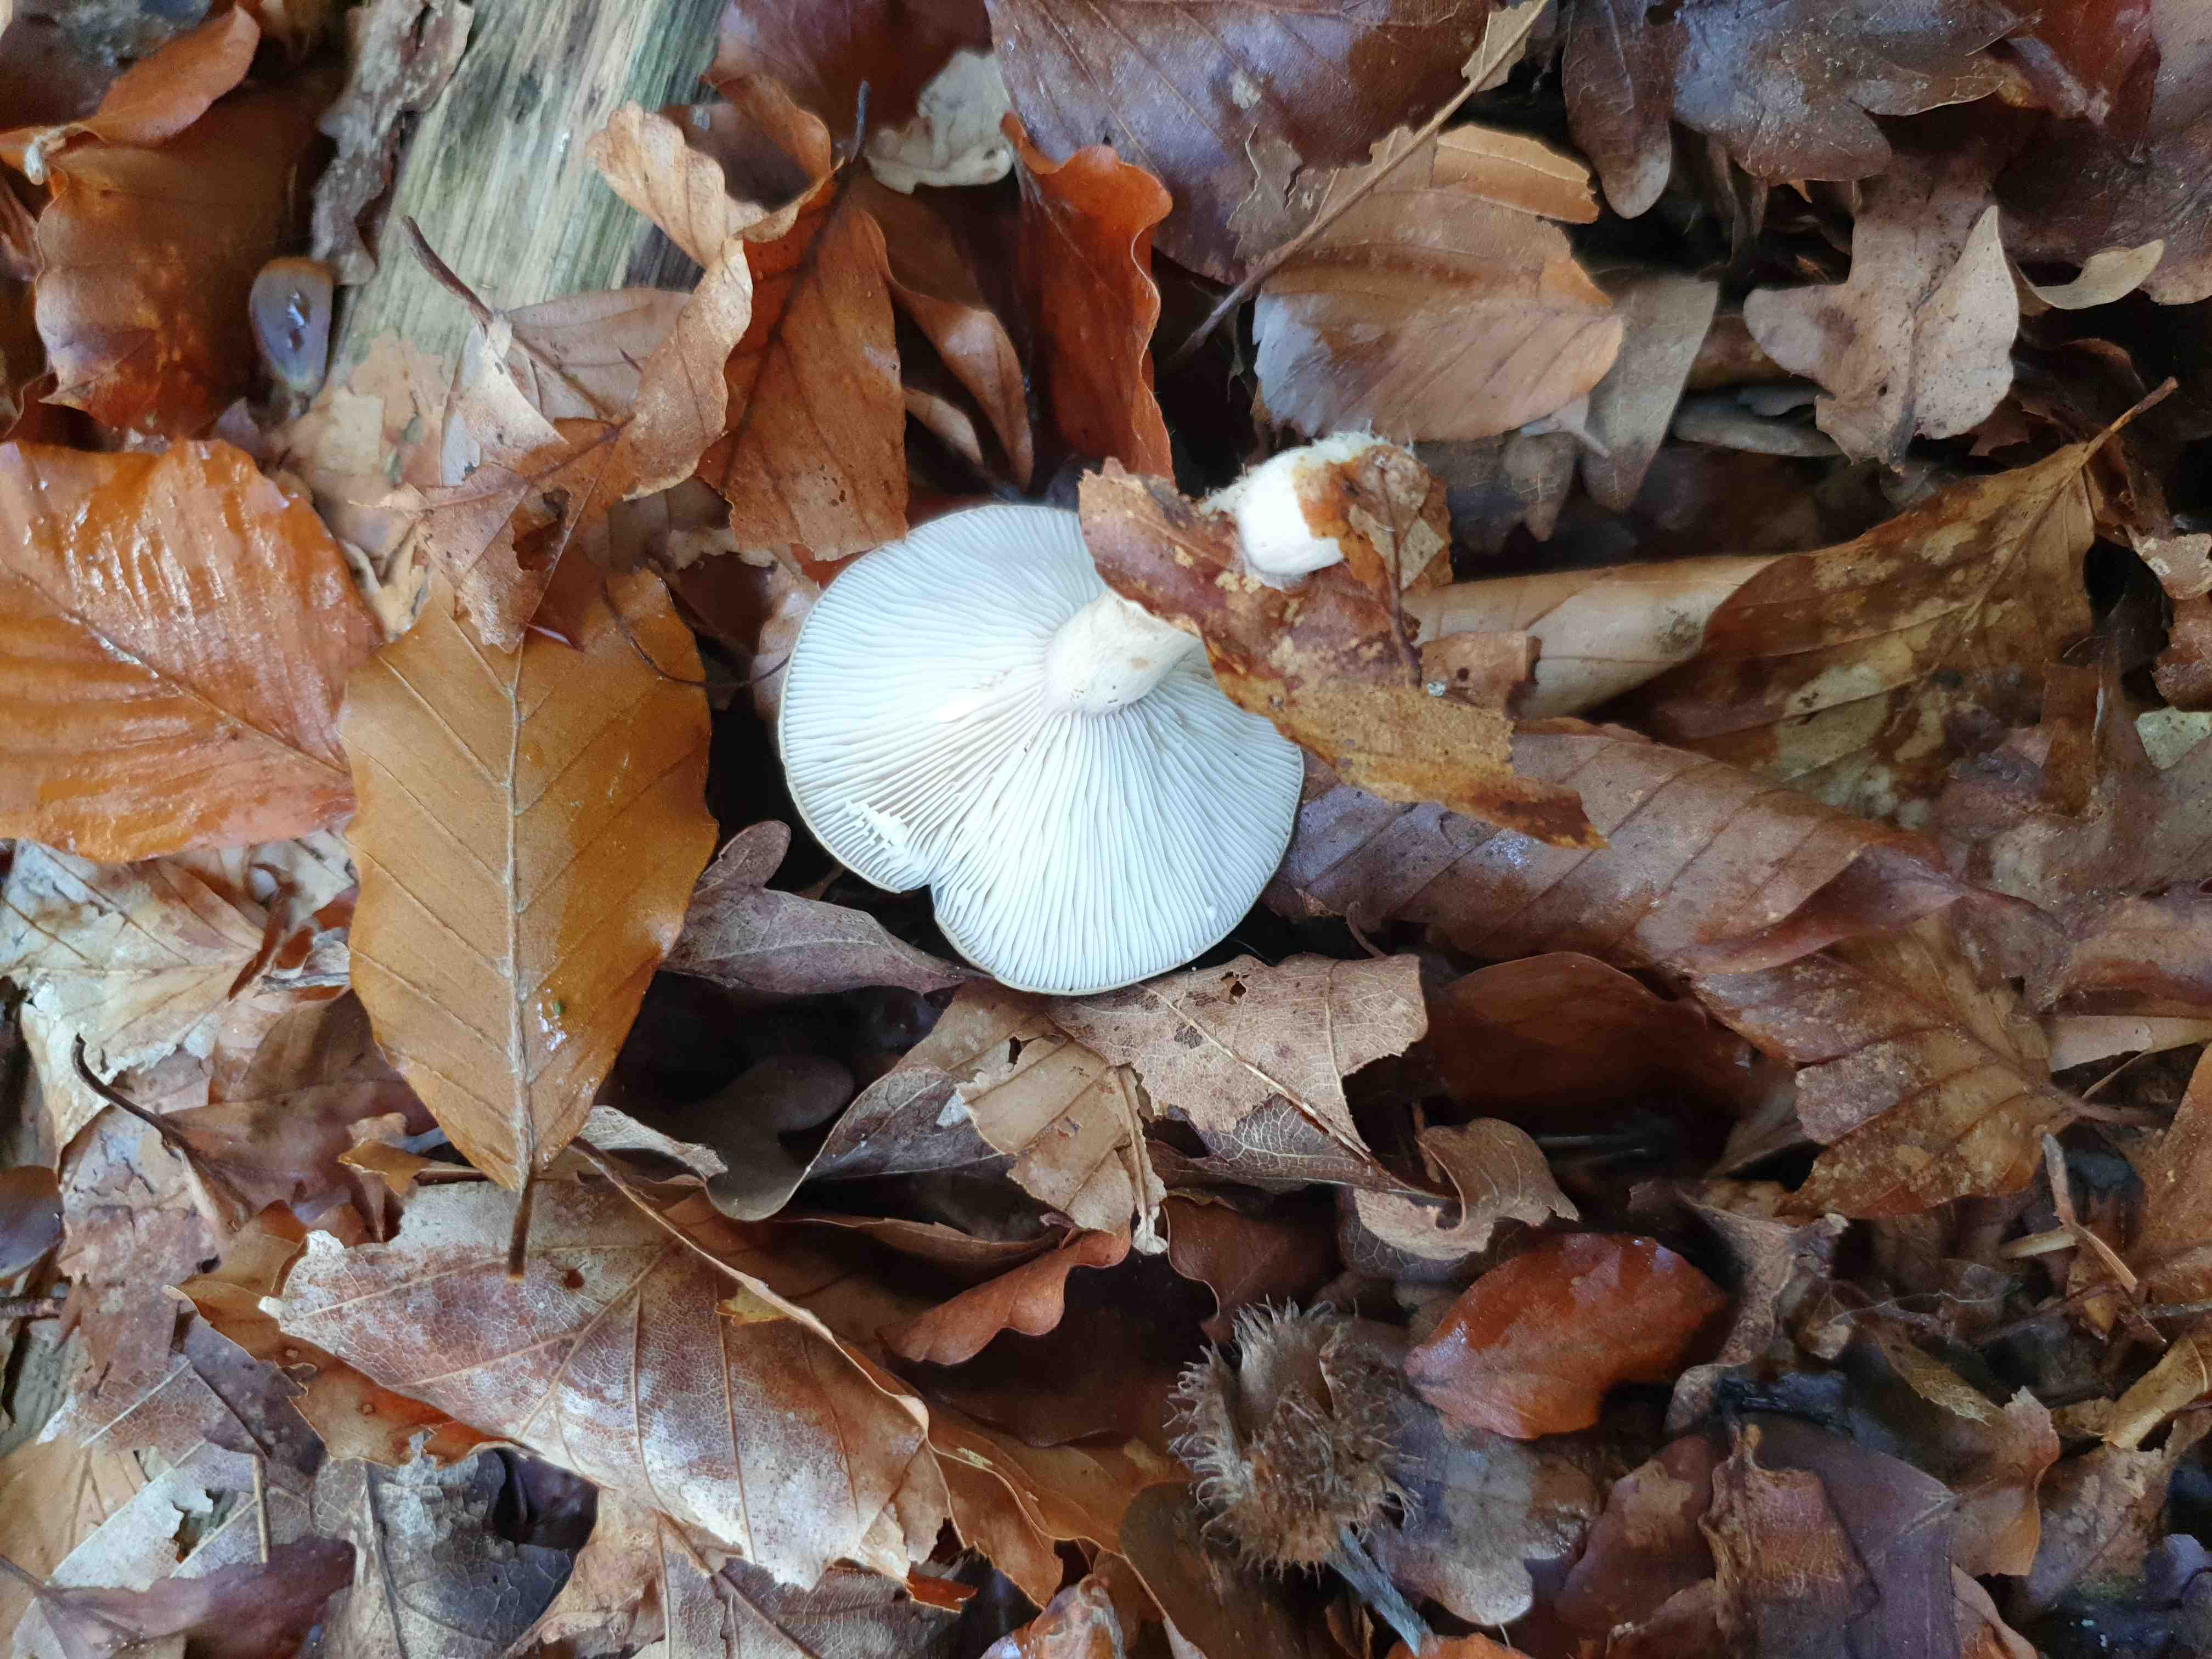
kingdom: Fungi
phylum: Basidiomycota
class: Agaricomycetes
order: Russulales
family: Russulaceae
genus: Lactarius
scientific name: Lactarius blennius
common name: dråbeplettet mælkehat
